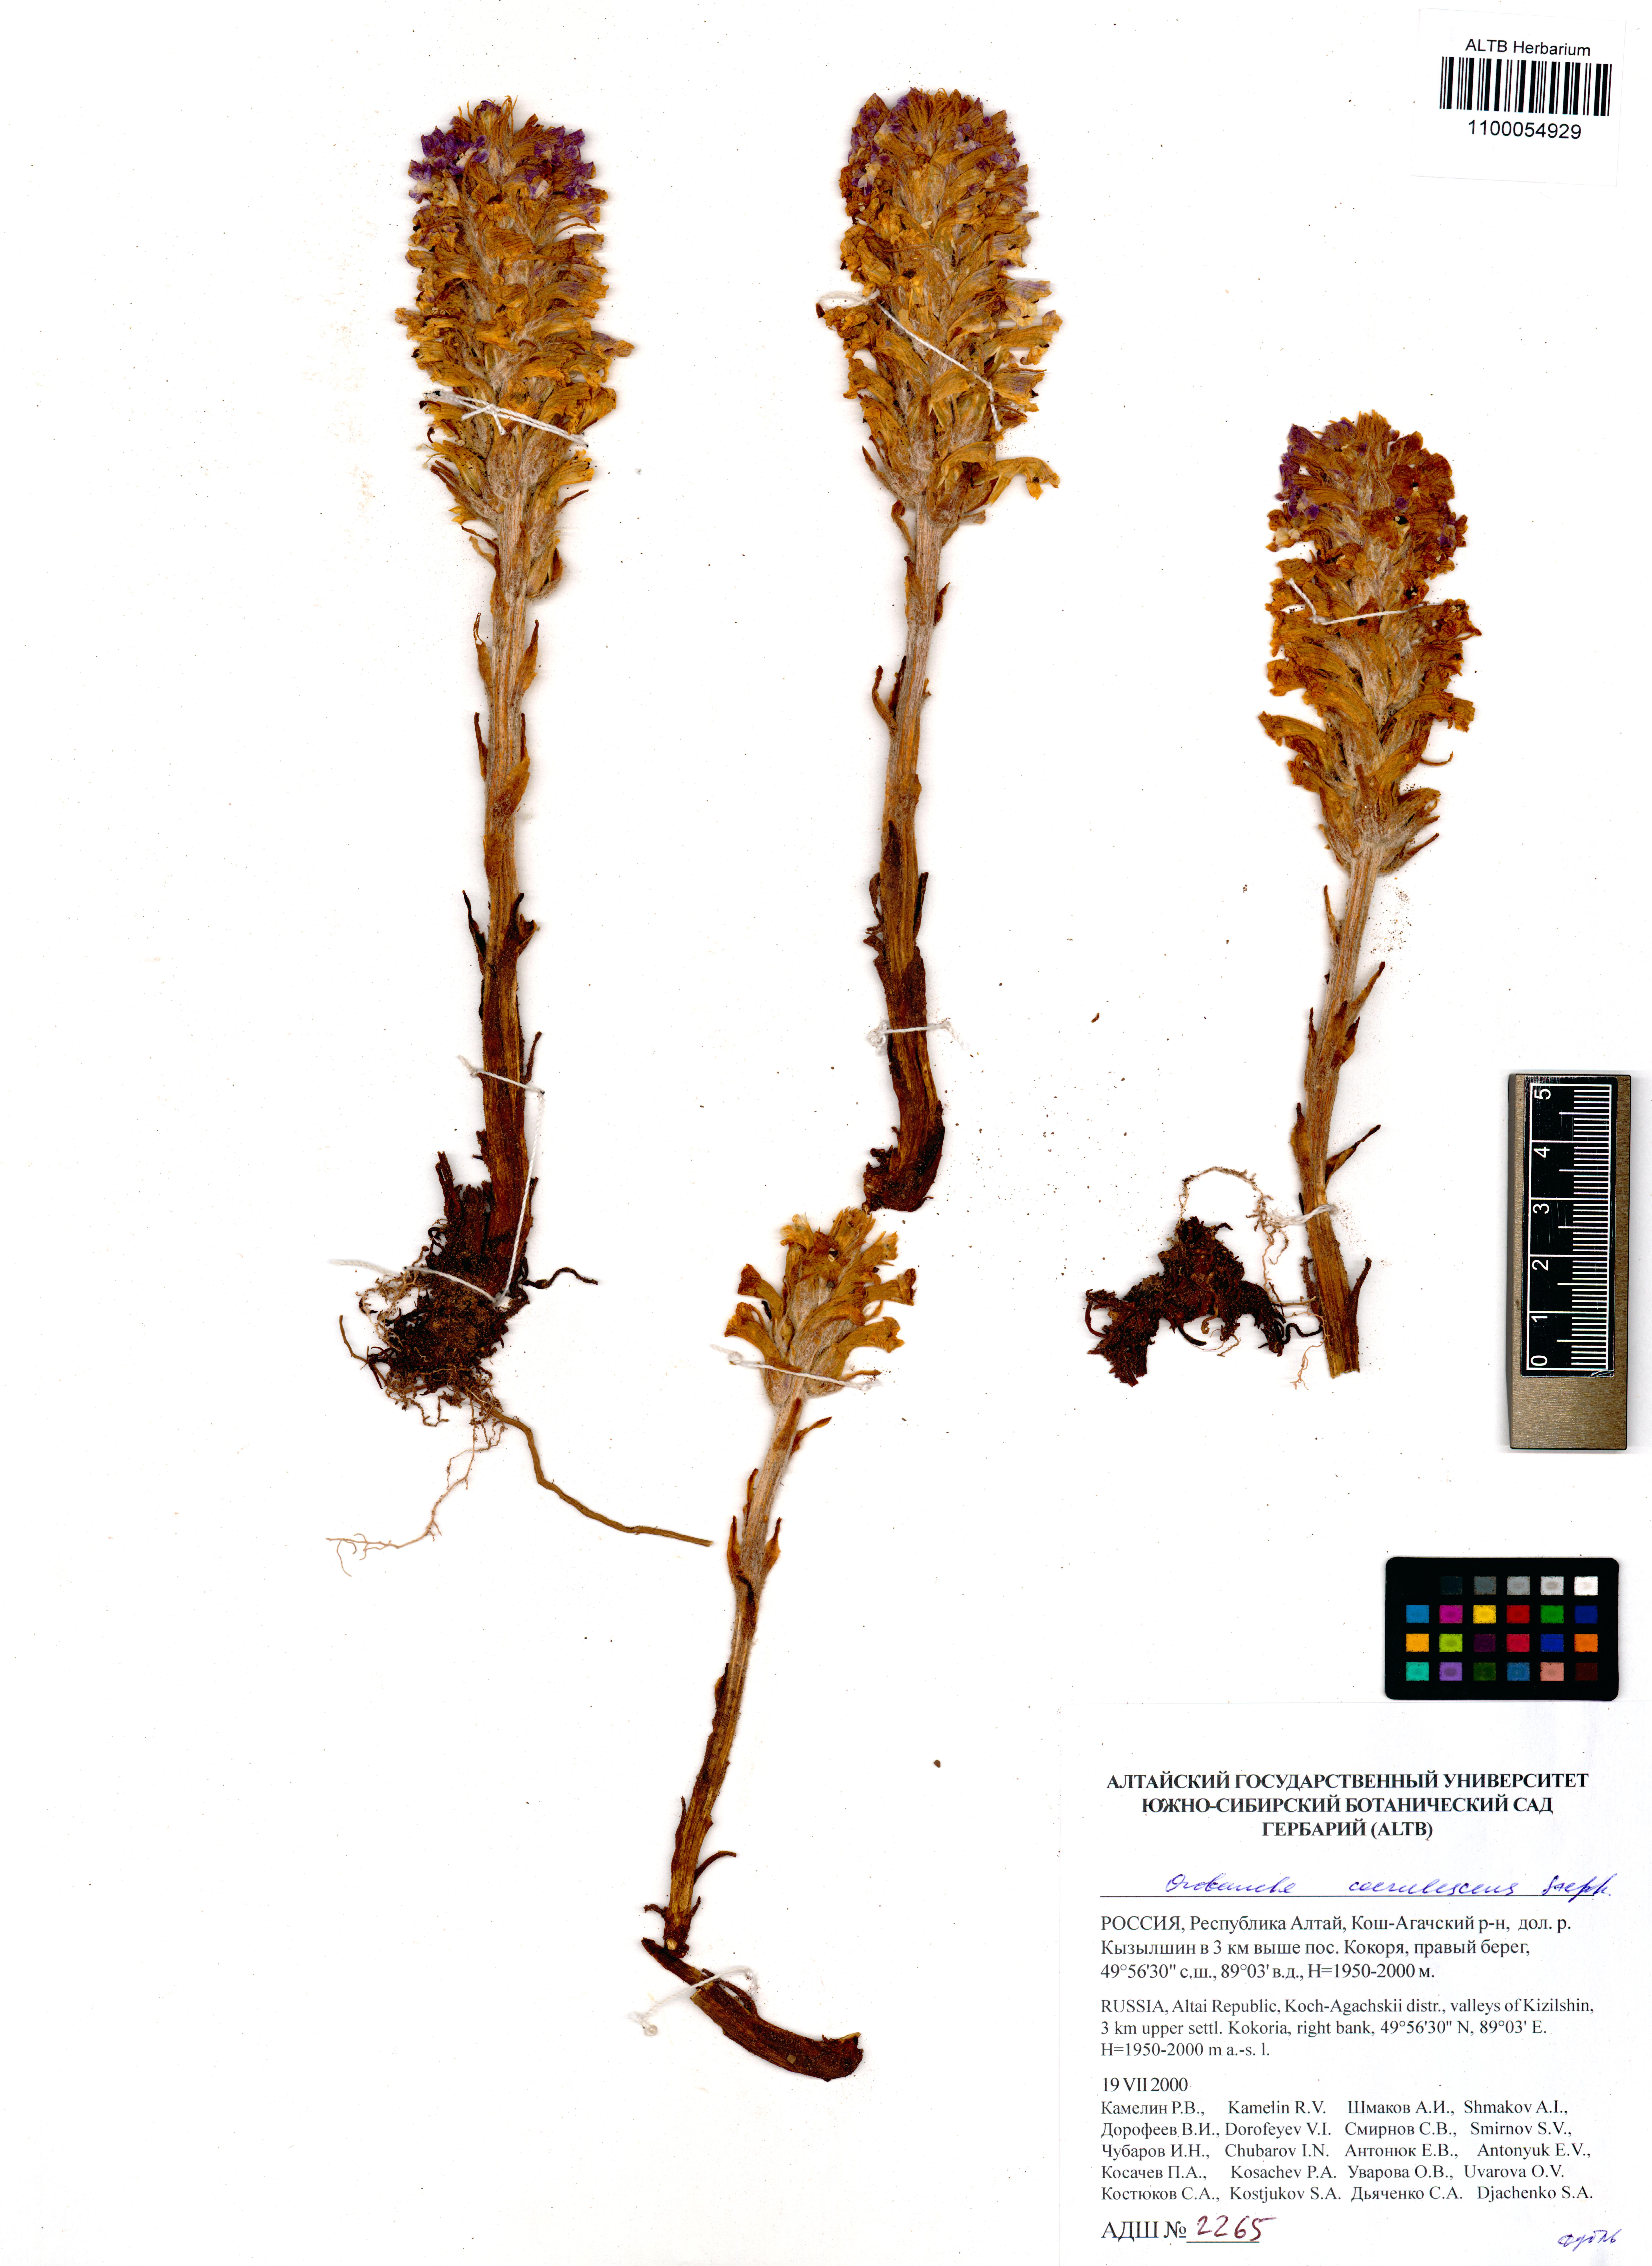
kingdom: Plantae
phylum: Tracheophyta
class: Magnoliopsida
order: Lamiales
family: Orobanchaceae
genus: Orobanche
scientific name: Orobanche coerulescens
